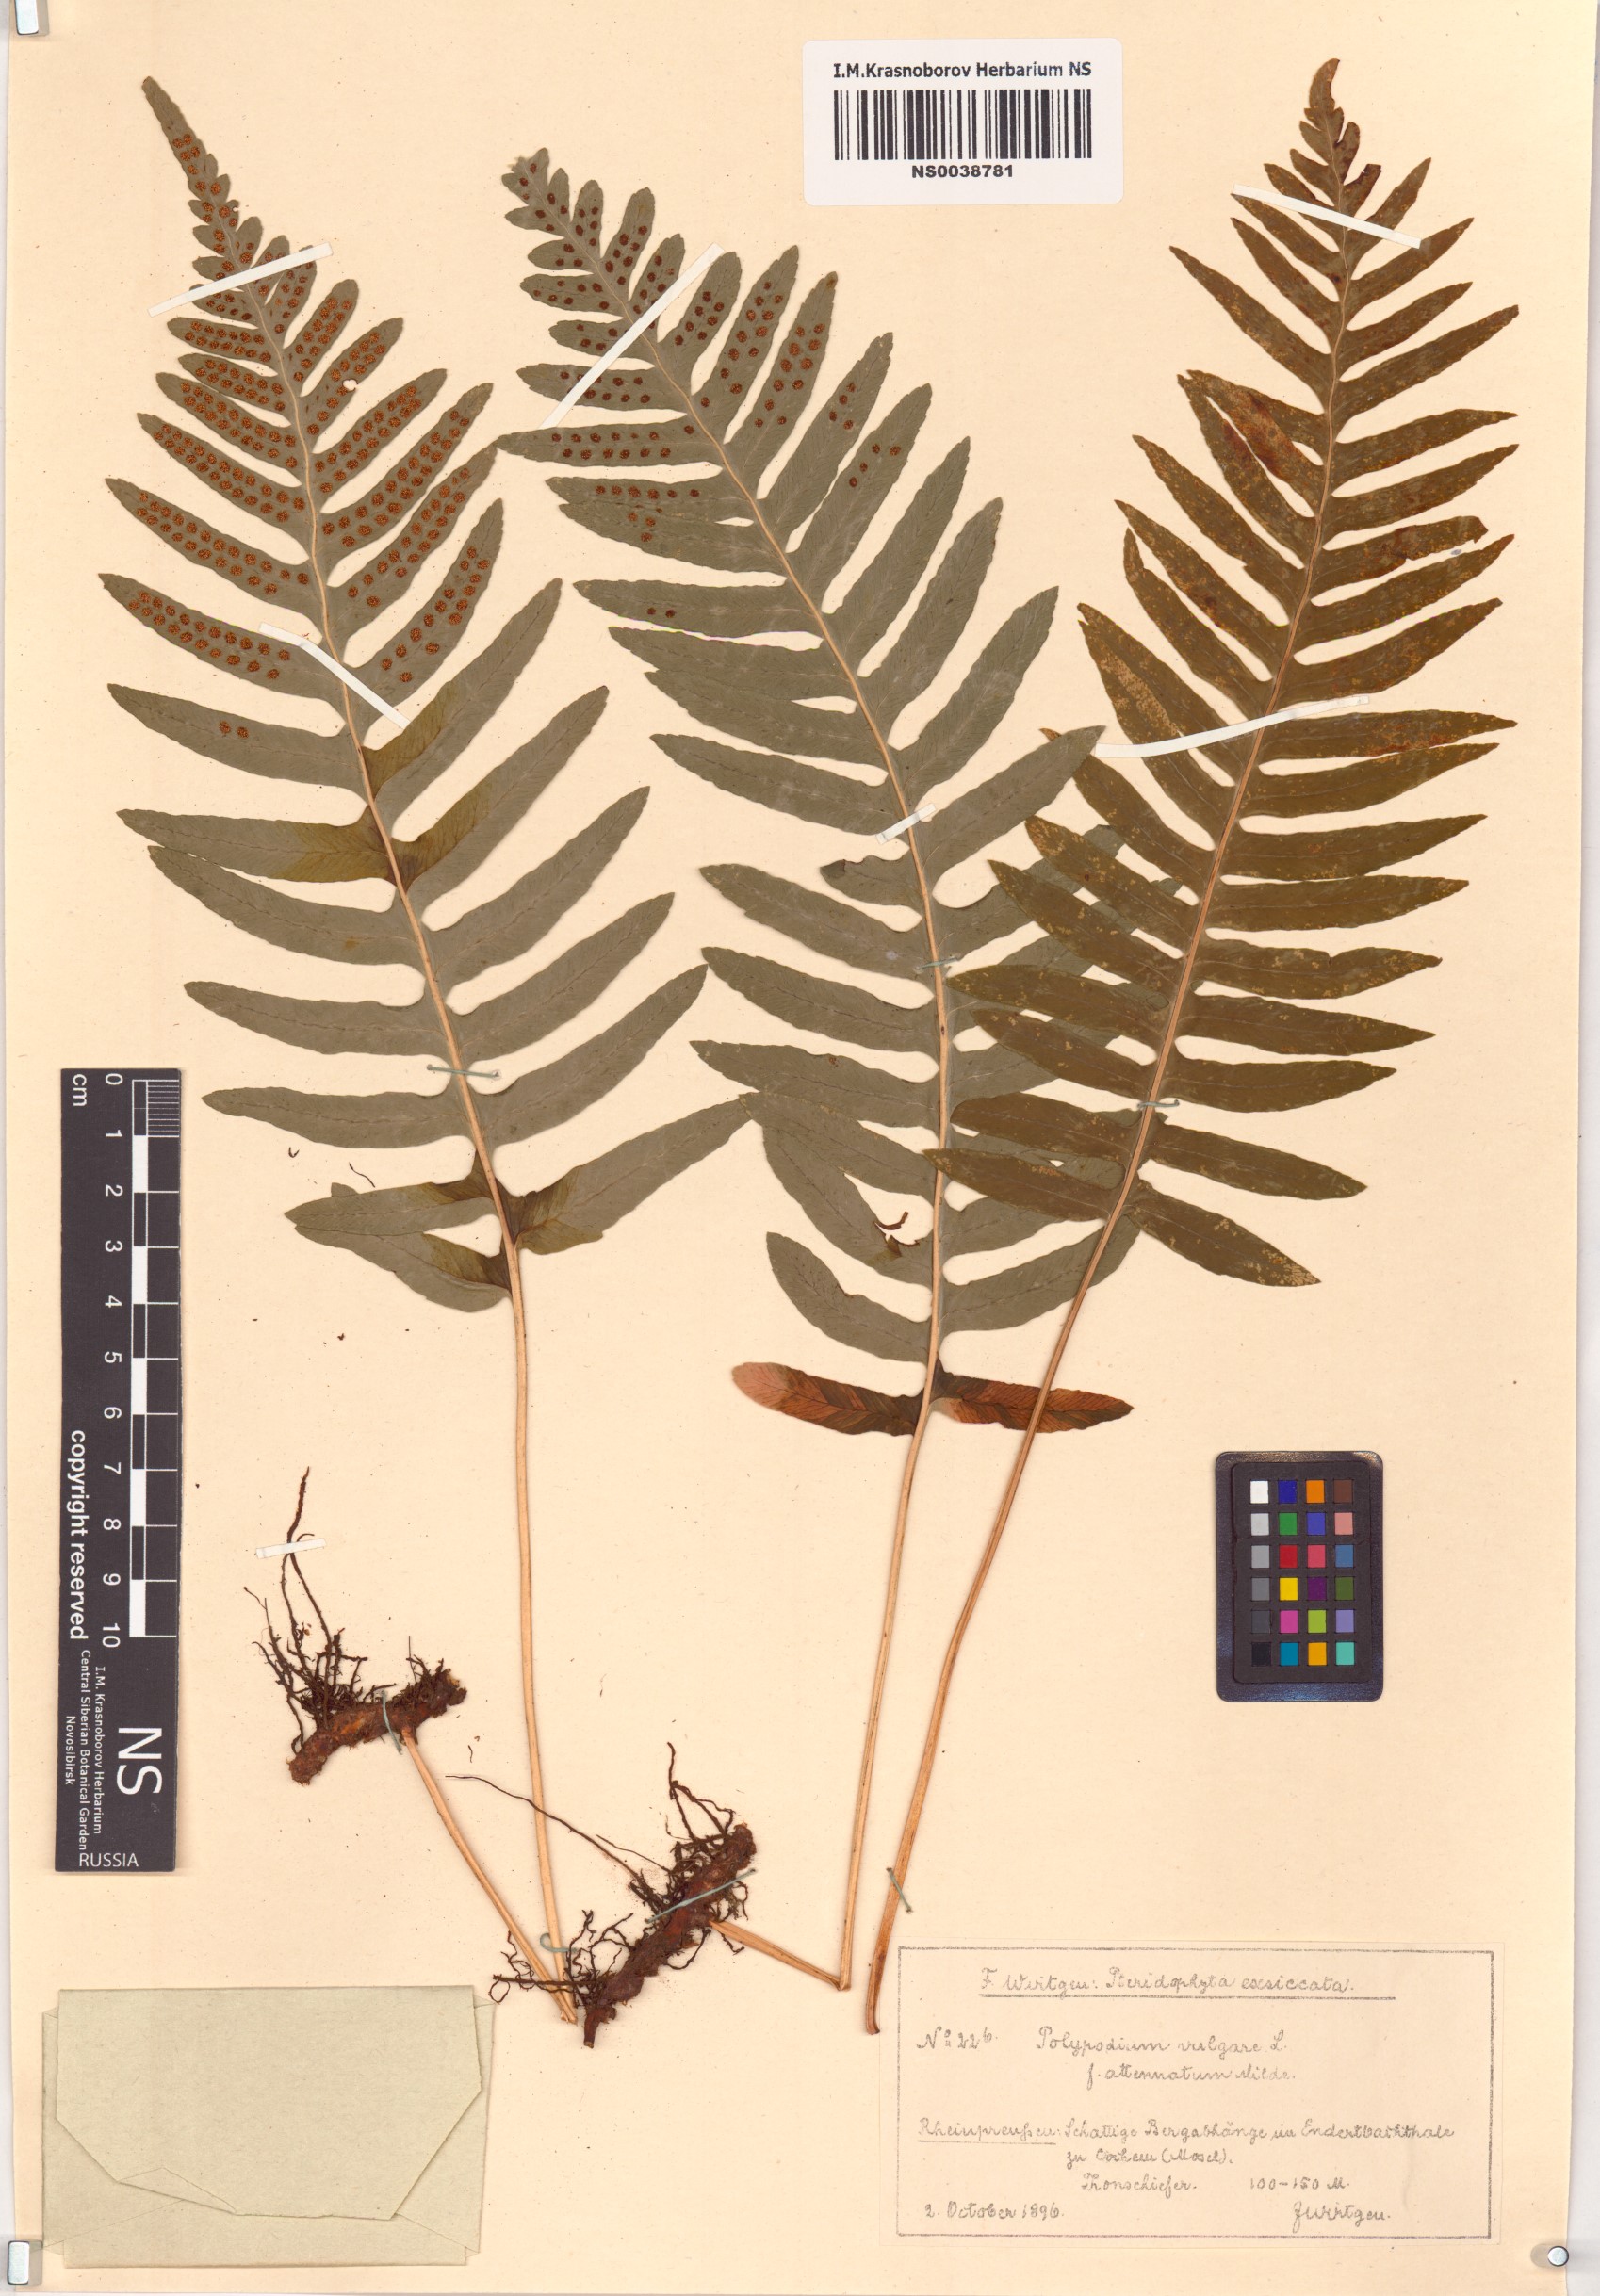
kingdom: Plantae
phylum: Tracheophyta
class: Polypodiopsida
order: Polypodiales
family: Polypodiaceae
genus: Polypodium
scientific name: Polypodium vulgare
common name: Common polypody
